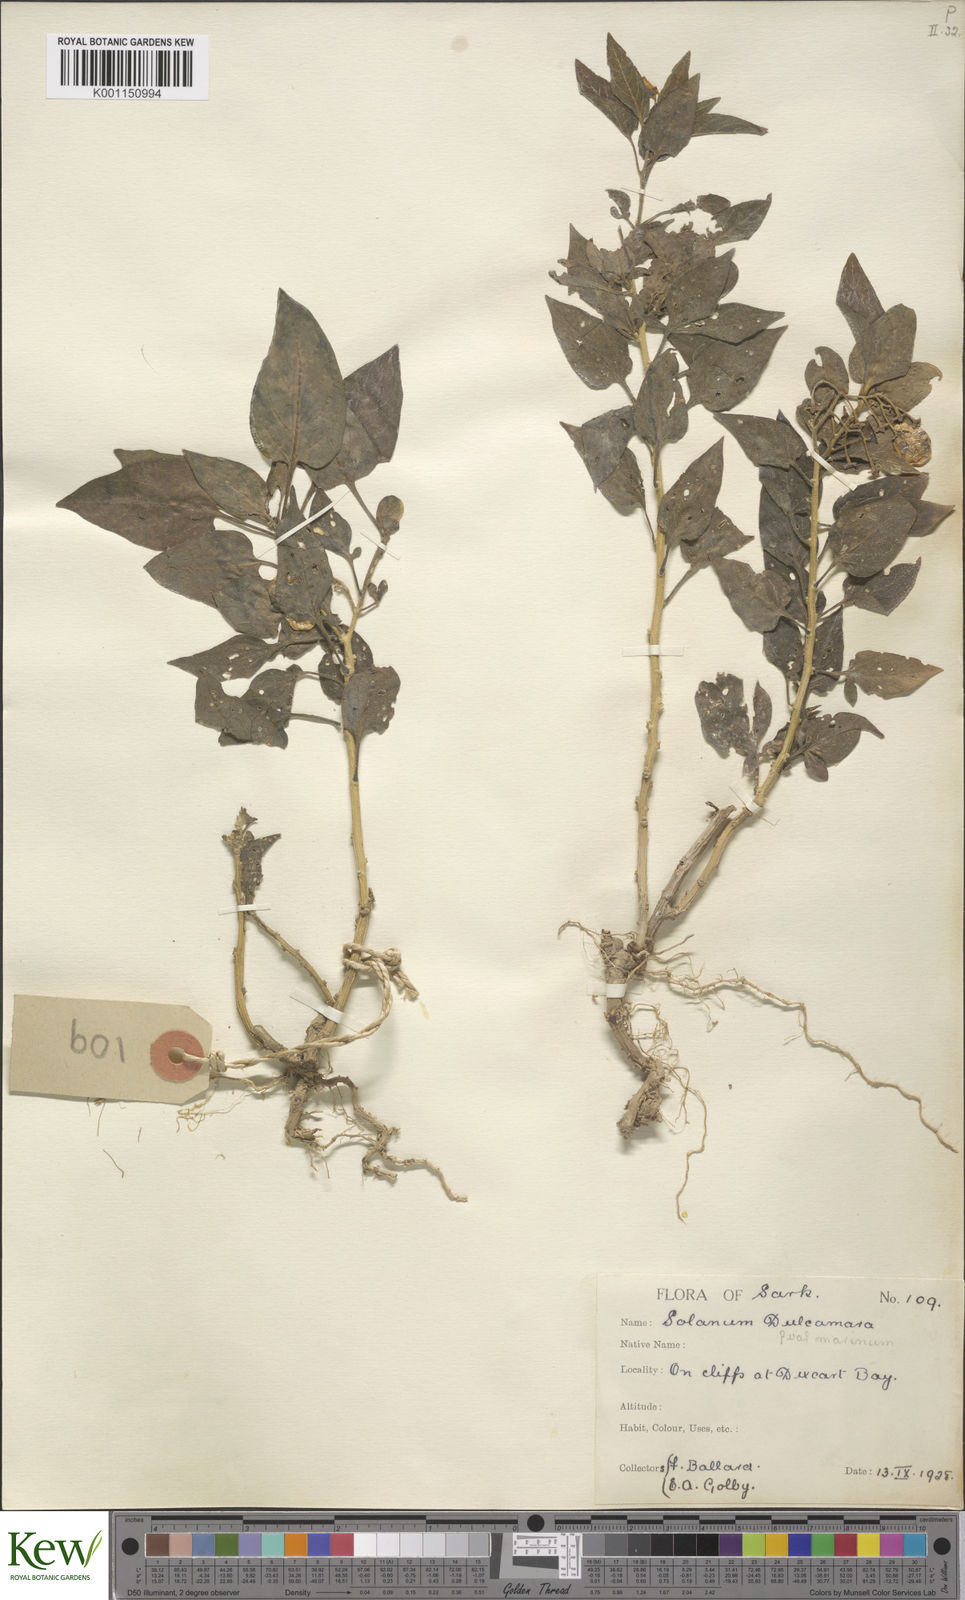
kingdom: Plantae
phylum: Tracheophyta
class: Magnoliopsida
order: Solanales
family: Solanaceae
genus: Solanum
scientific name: Solanum dulcamara
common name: Climbing nightshade
